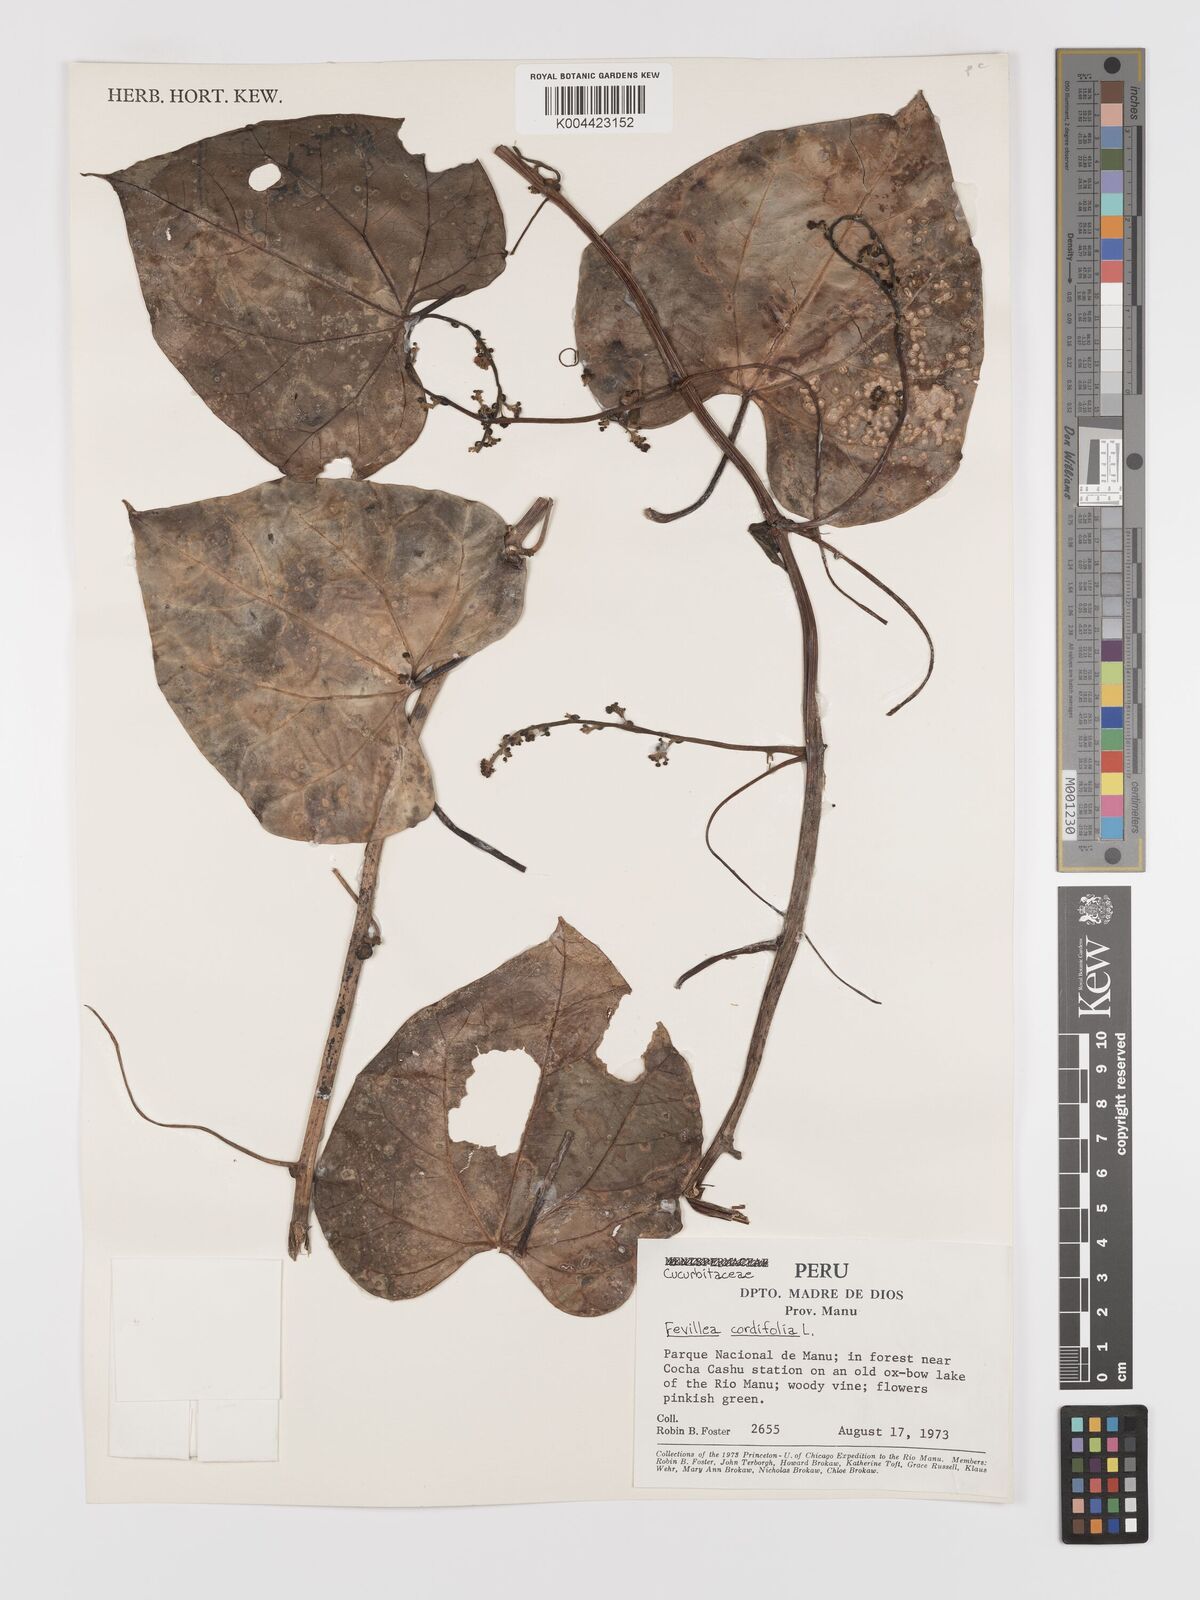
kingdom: Plantae
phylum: Tracheophyta
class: Magnoliopsida
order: Cucurbitales
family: Cucurbitaceae
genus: Fevillea
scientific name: Fevillea
